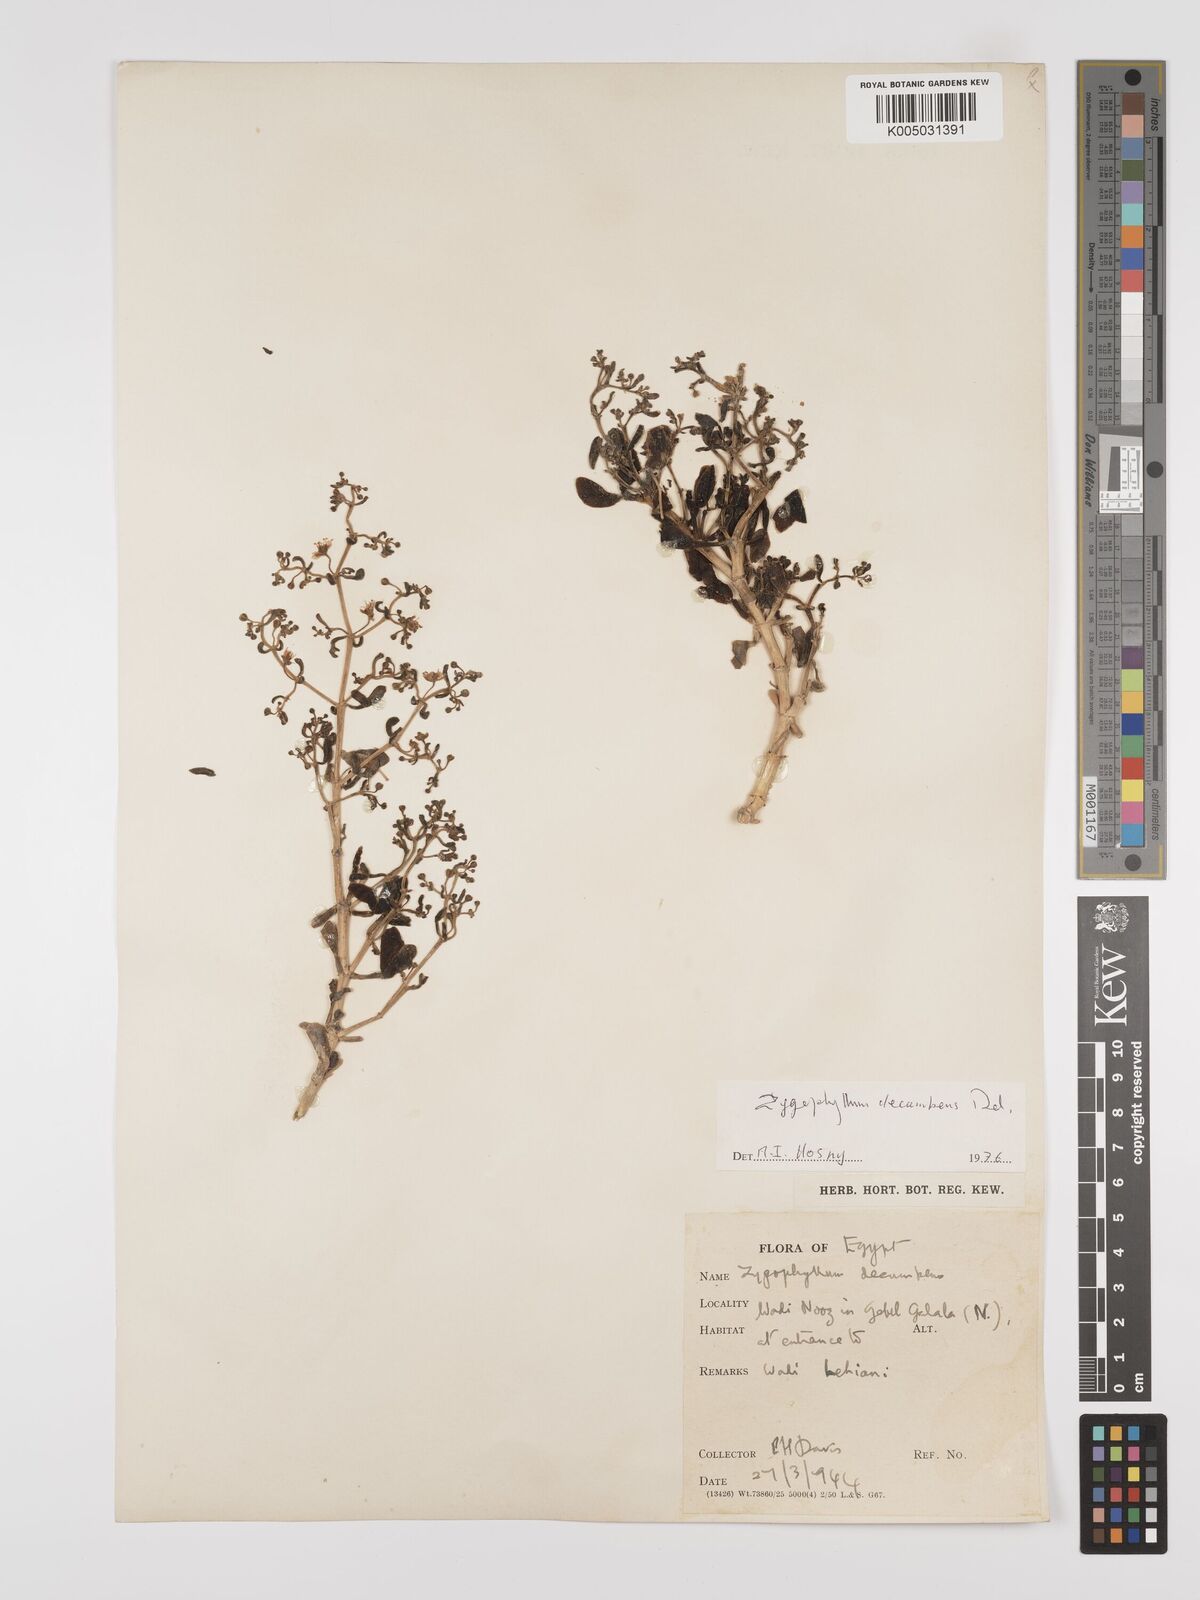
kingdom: Plantae
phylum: Tracheophyta
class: Magnoliopsida
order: Zygophyllales
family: Zygophyllaceae
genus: Tetraena
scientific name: Tetraena decumbens
